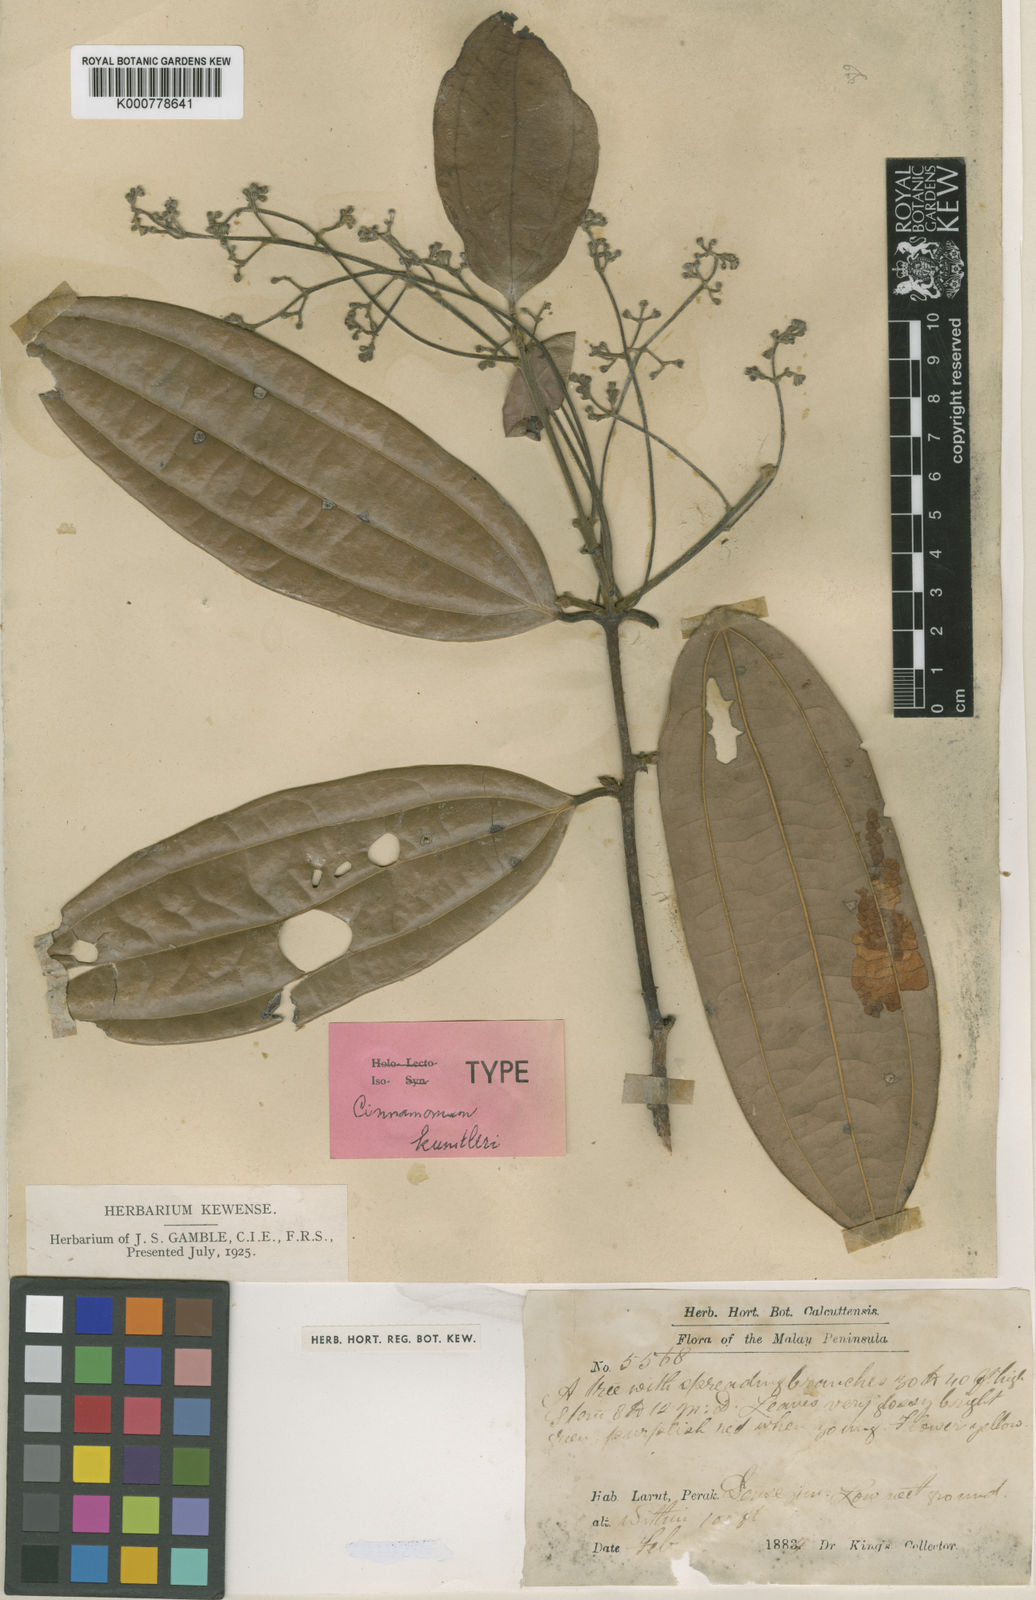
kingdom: Plantae
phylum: Tracheophyta
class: Magnoliopsida
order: Laurales
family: Lauraceae
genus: Cinnamomum
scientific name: Cinnamomum kunstleri
